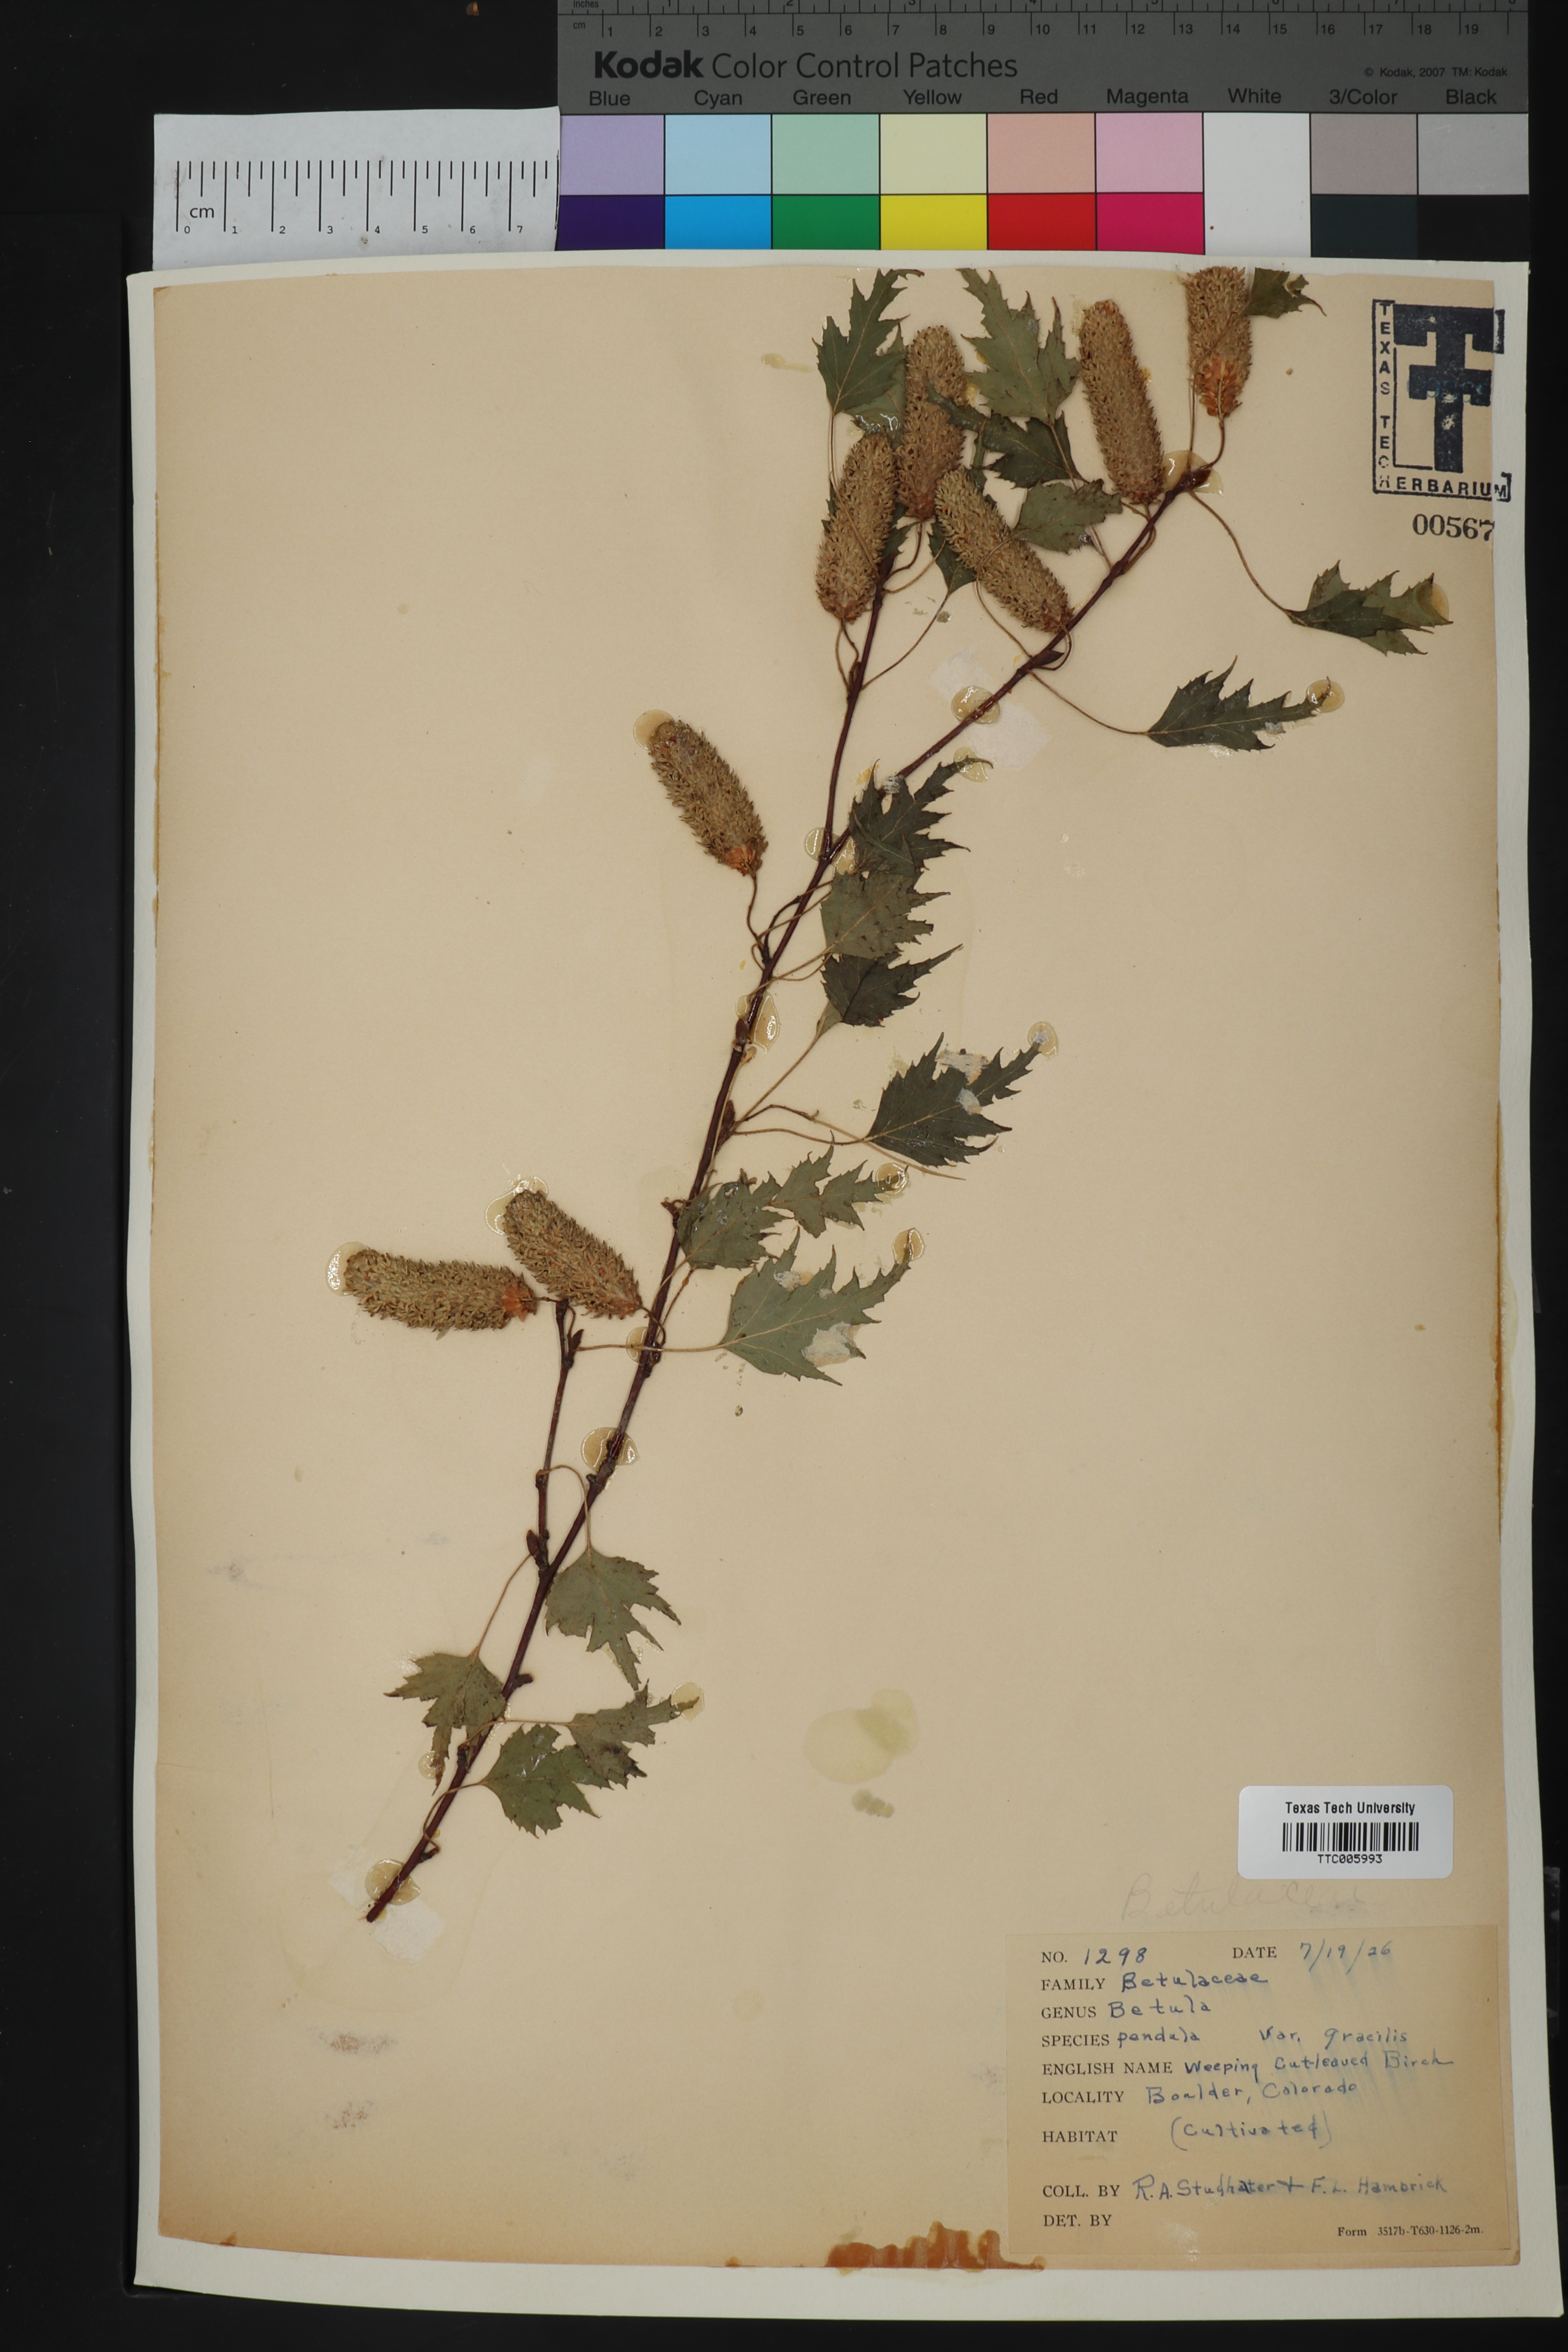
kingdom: Plantae
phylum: Tracheophyta
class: Magnoliopsida
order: Fagales
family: Betulaceae
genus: Betula
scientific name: Betula pendula
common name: Silver birch
